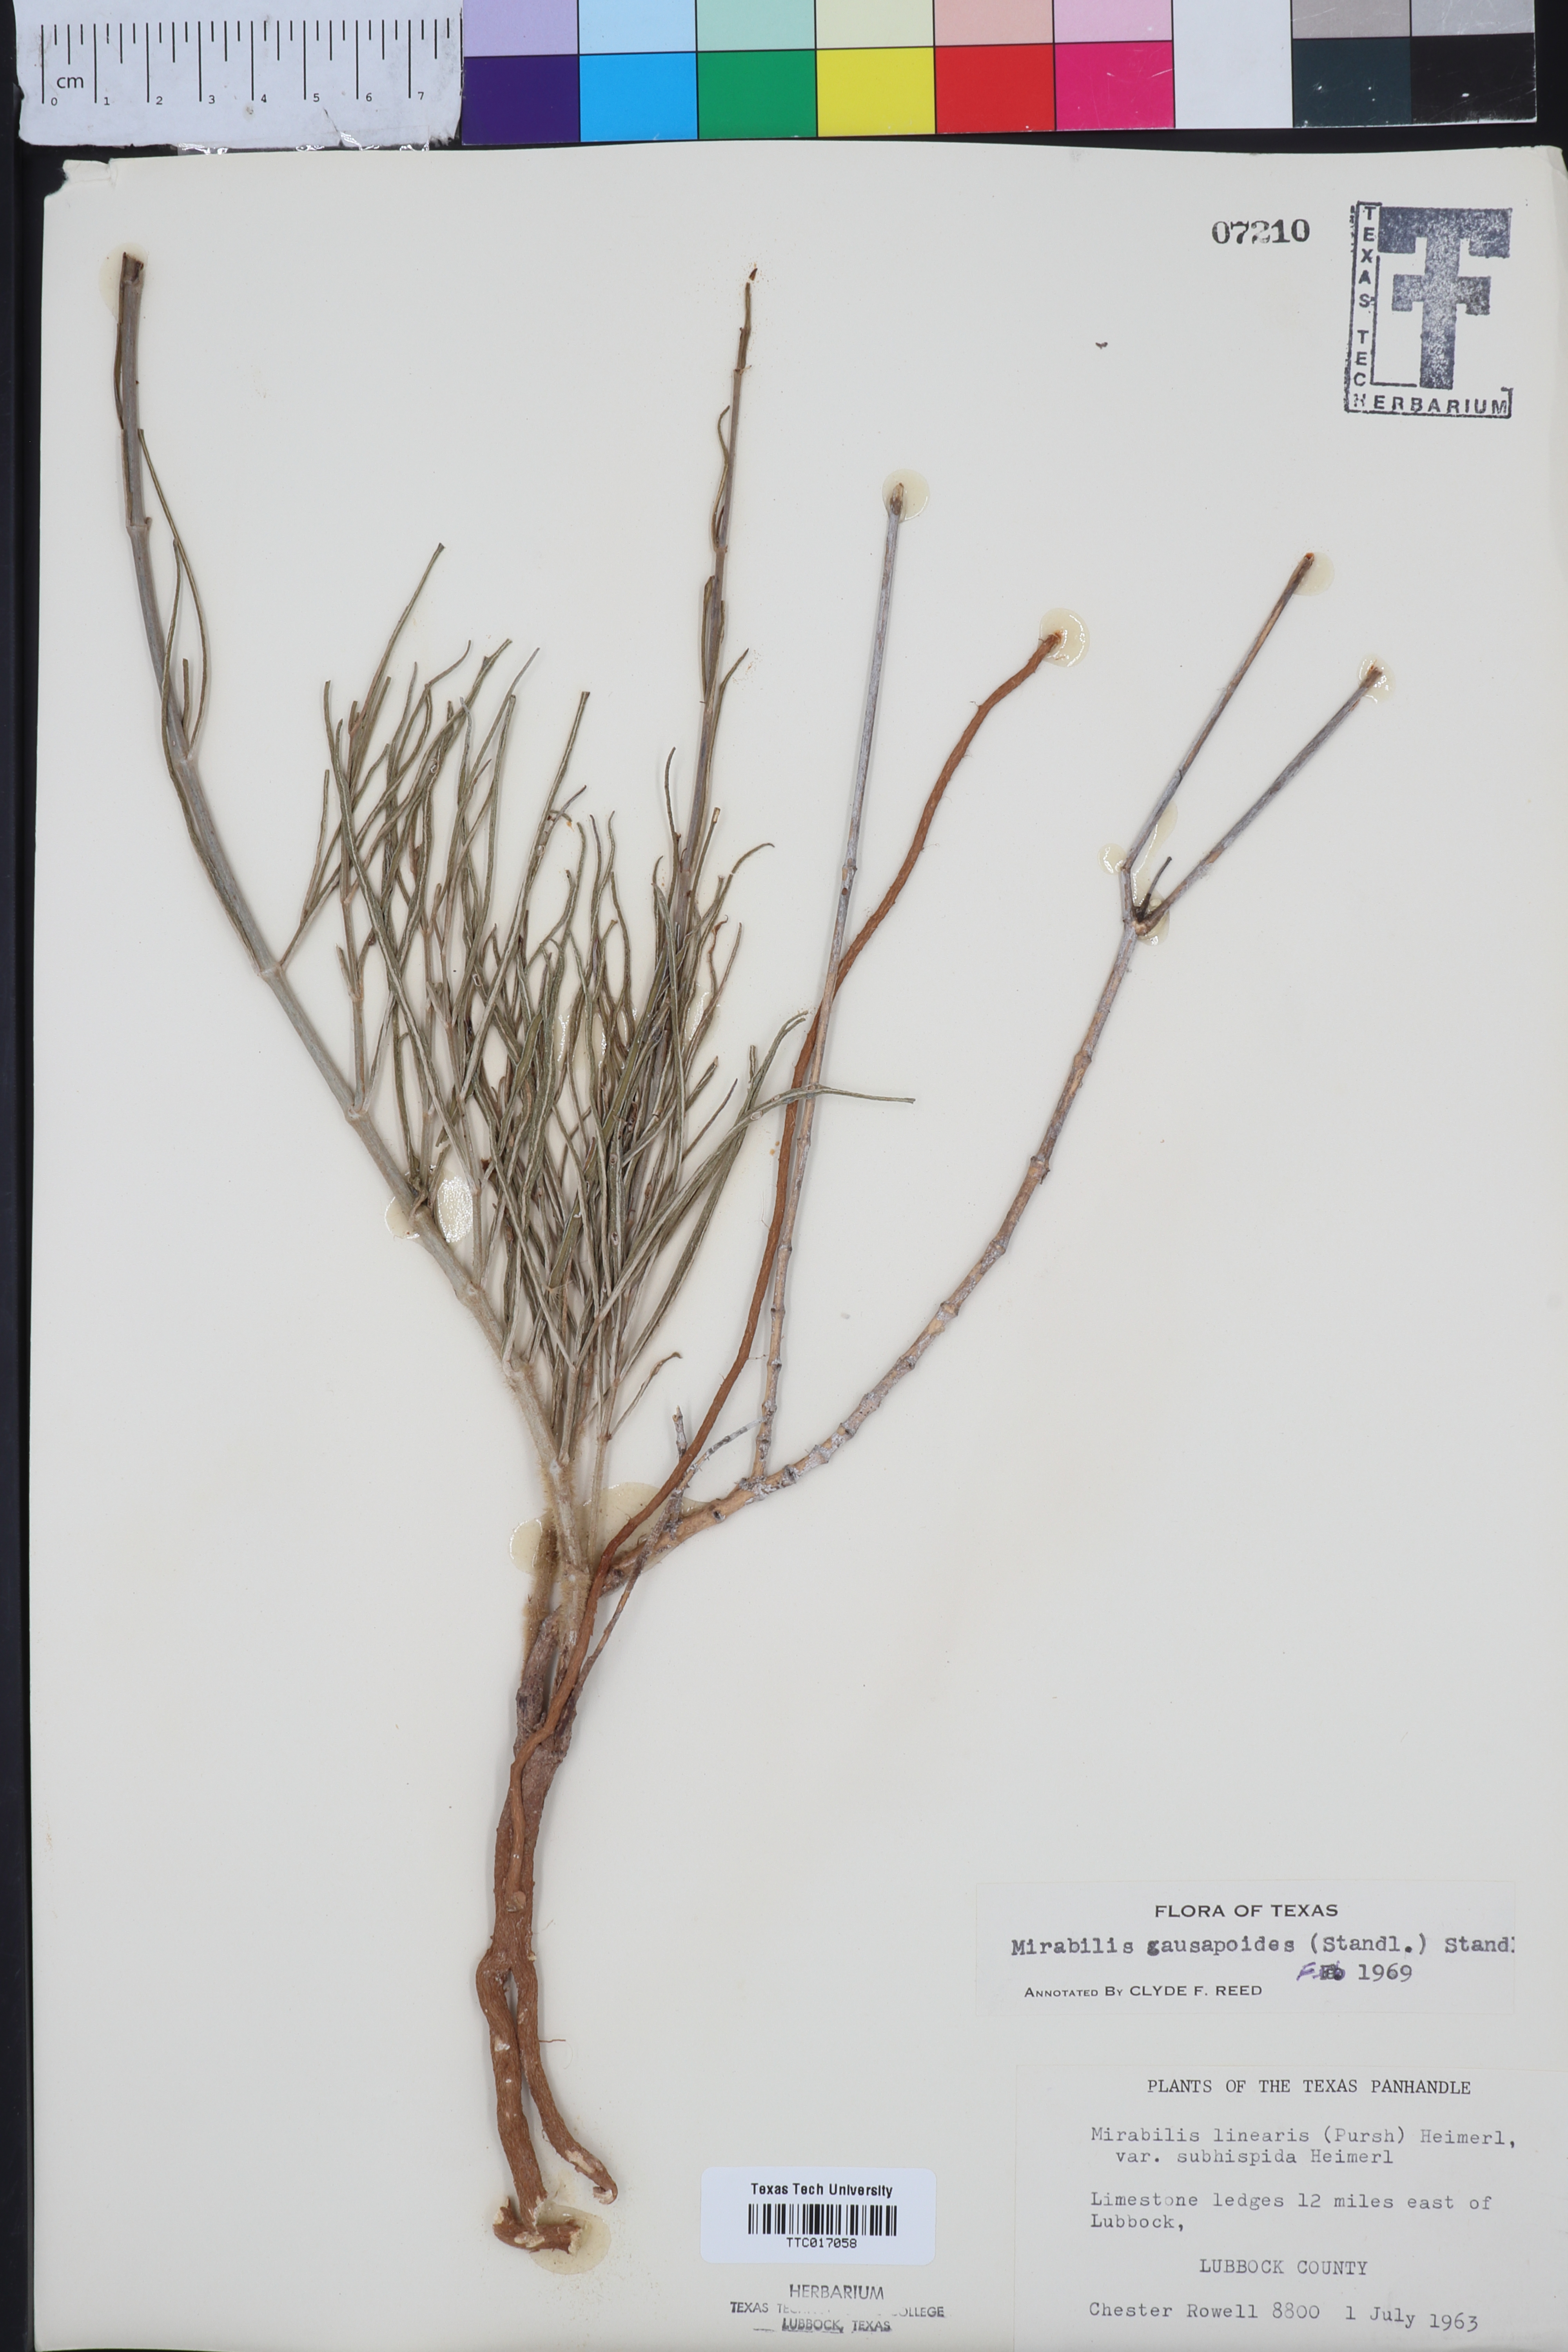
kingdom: Plantae
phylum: Tracheophyta
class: Magnoliopsida
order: Caryophyllales
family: Nyctaginaceae
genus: Mirabilis
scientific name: Mirabilis linearis
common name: Linear-leaved four-o'clock
